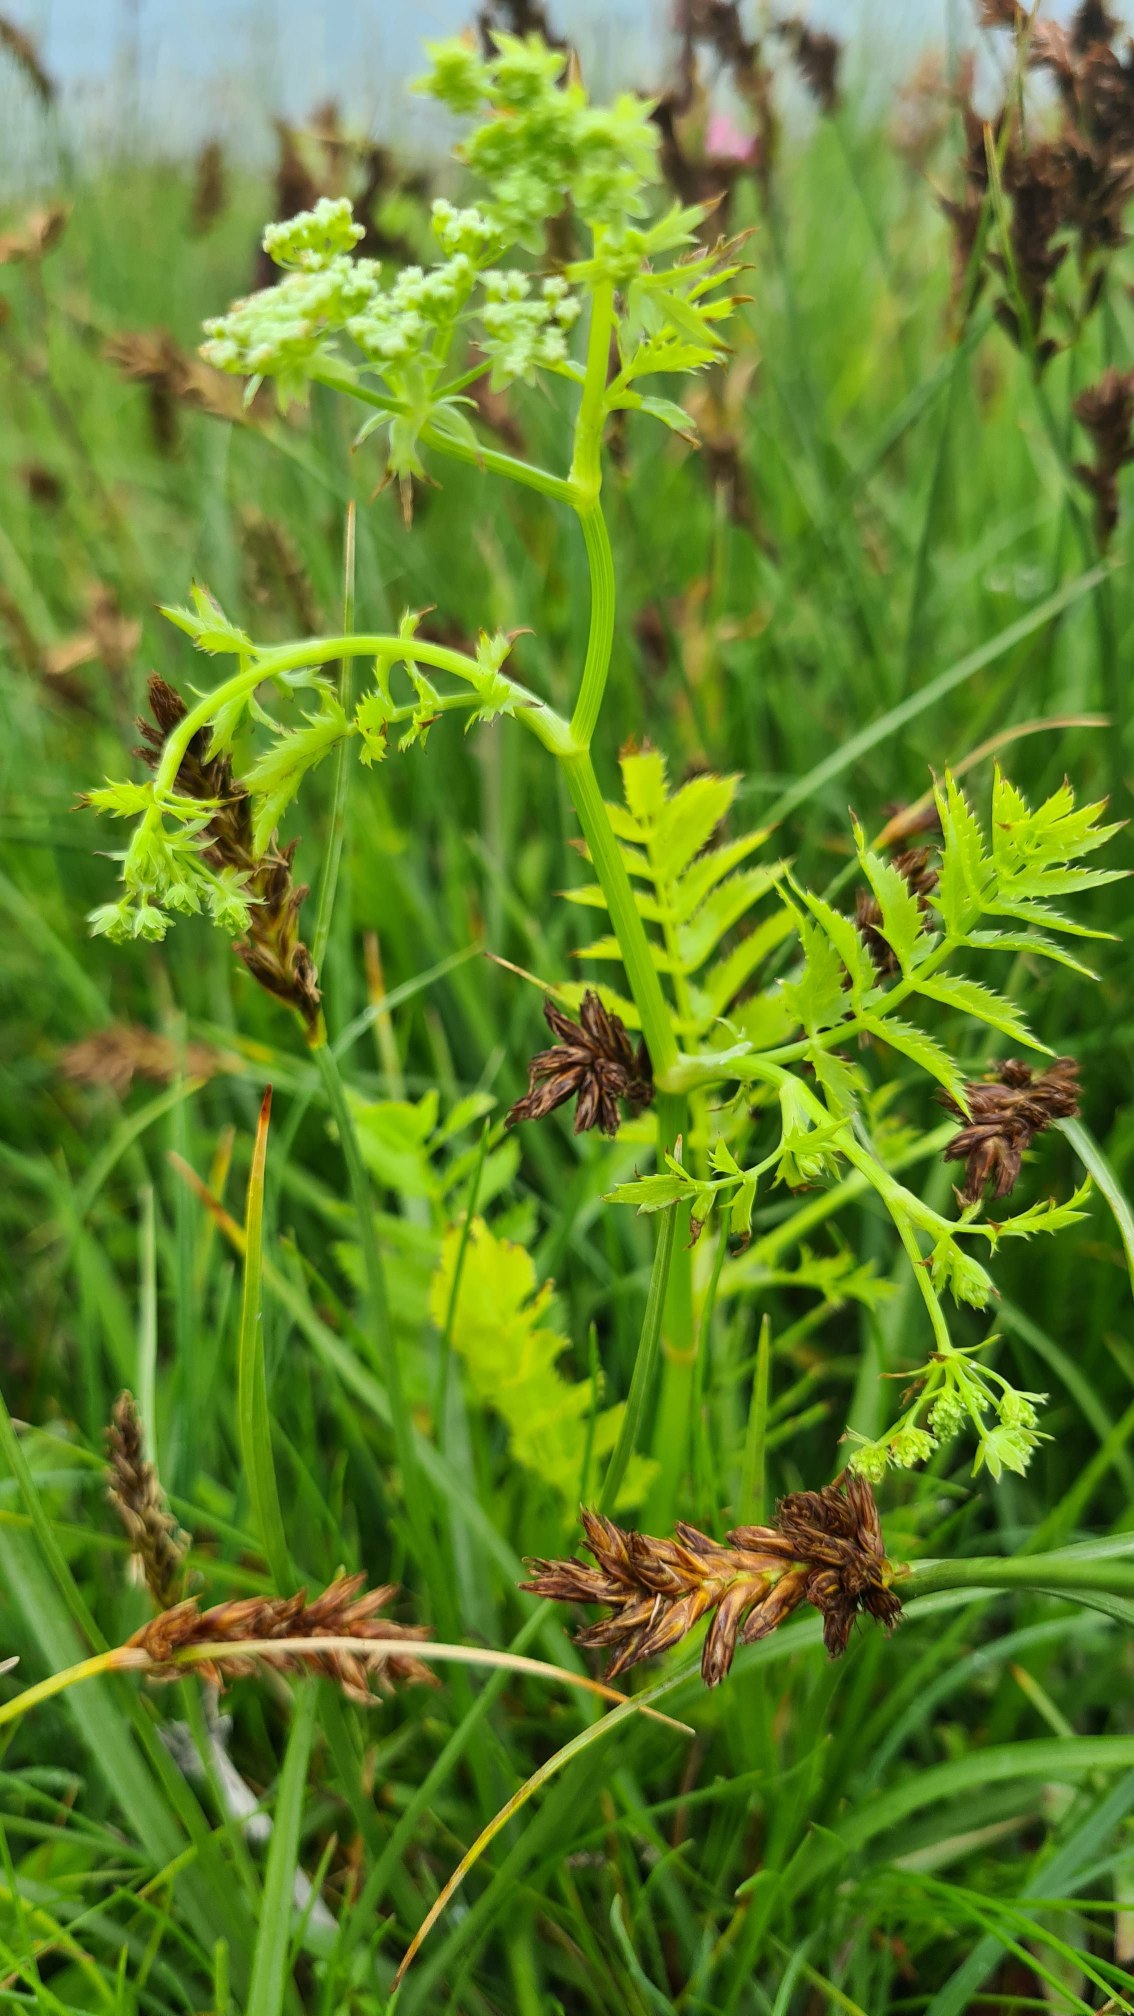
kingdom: Plantae
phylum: Tracheophyta
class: Magnoliopsida
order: Apiales
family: Apiaceae
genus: Berula
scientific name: Berula erecta
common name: Sideskærm
